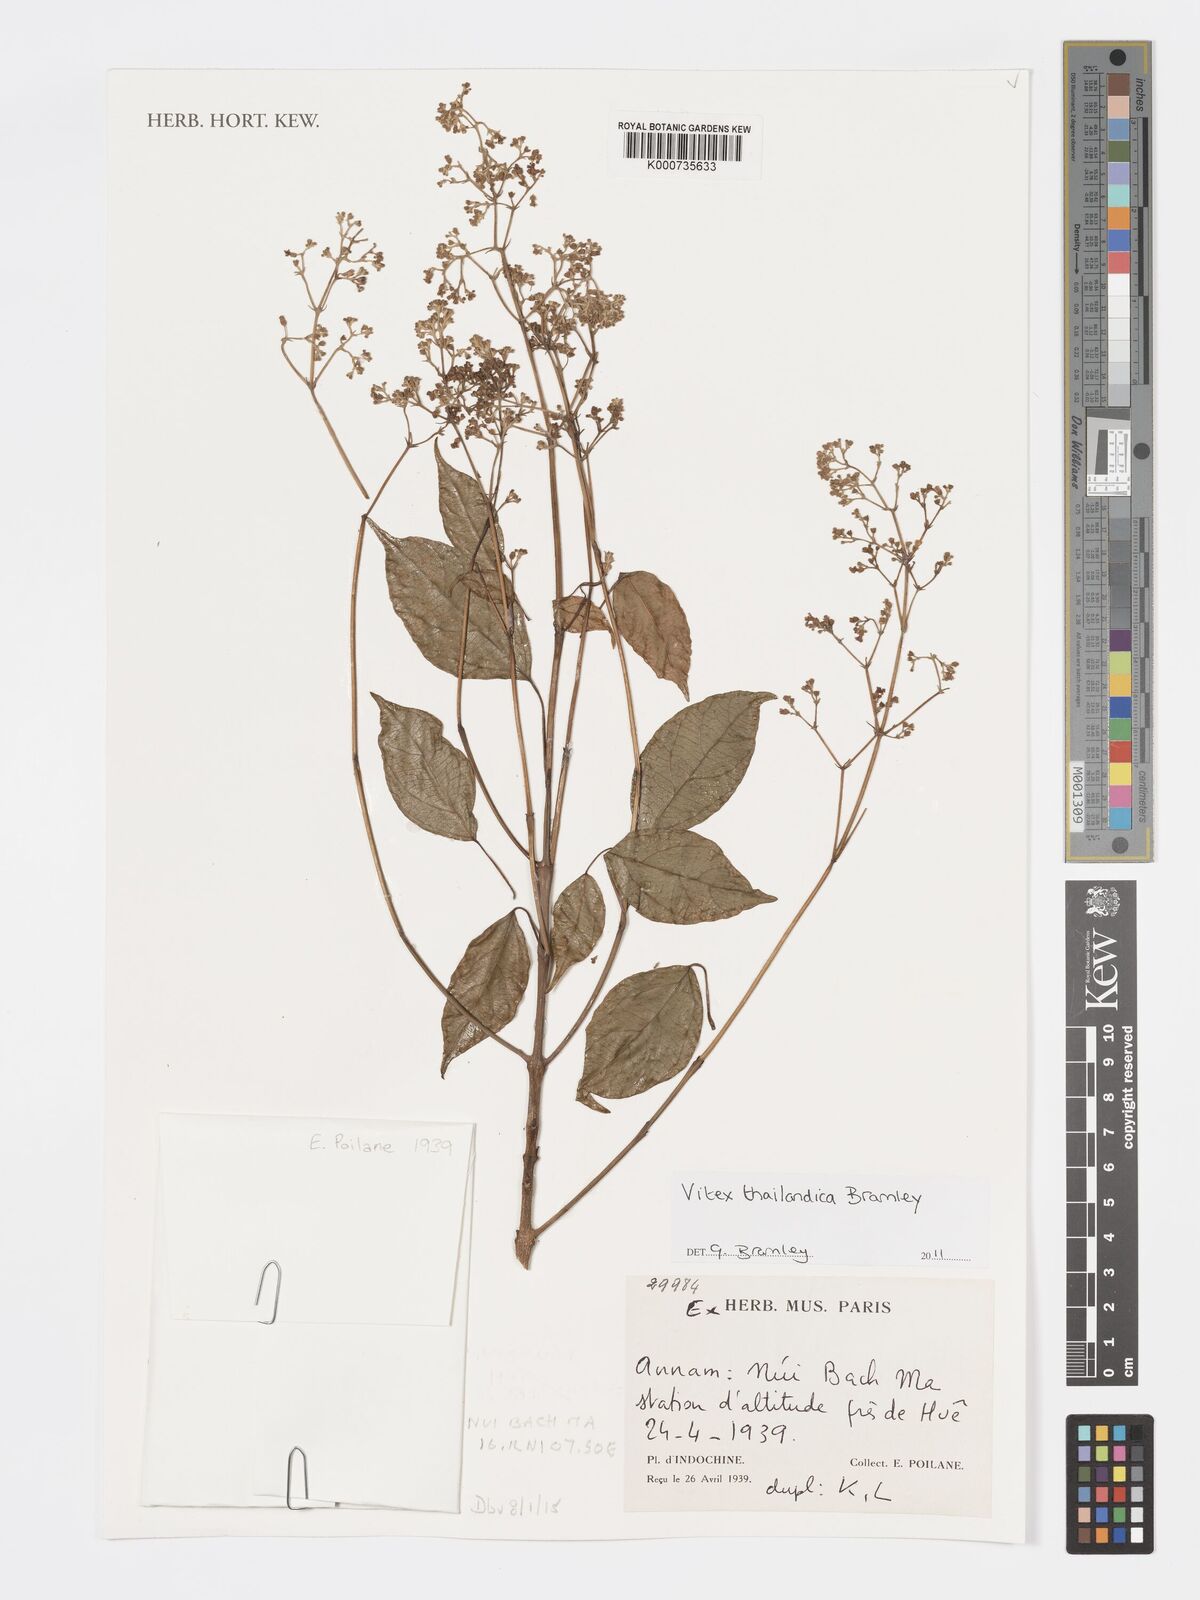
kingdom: Plantae
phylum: Tracheophyta
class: Magnoliopsida
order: Lamiales
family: Lamiaceae
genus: Vitex
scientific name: Vitex thailandica
